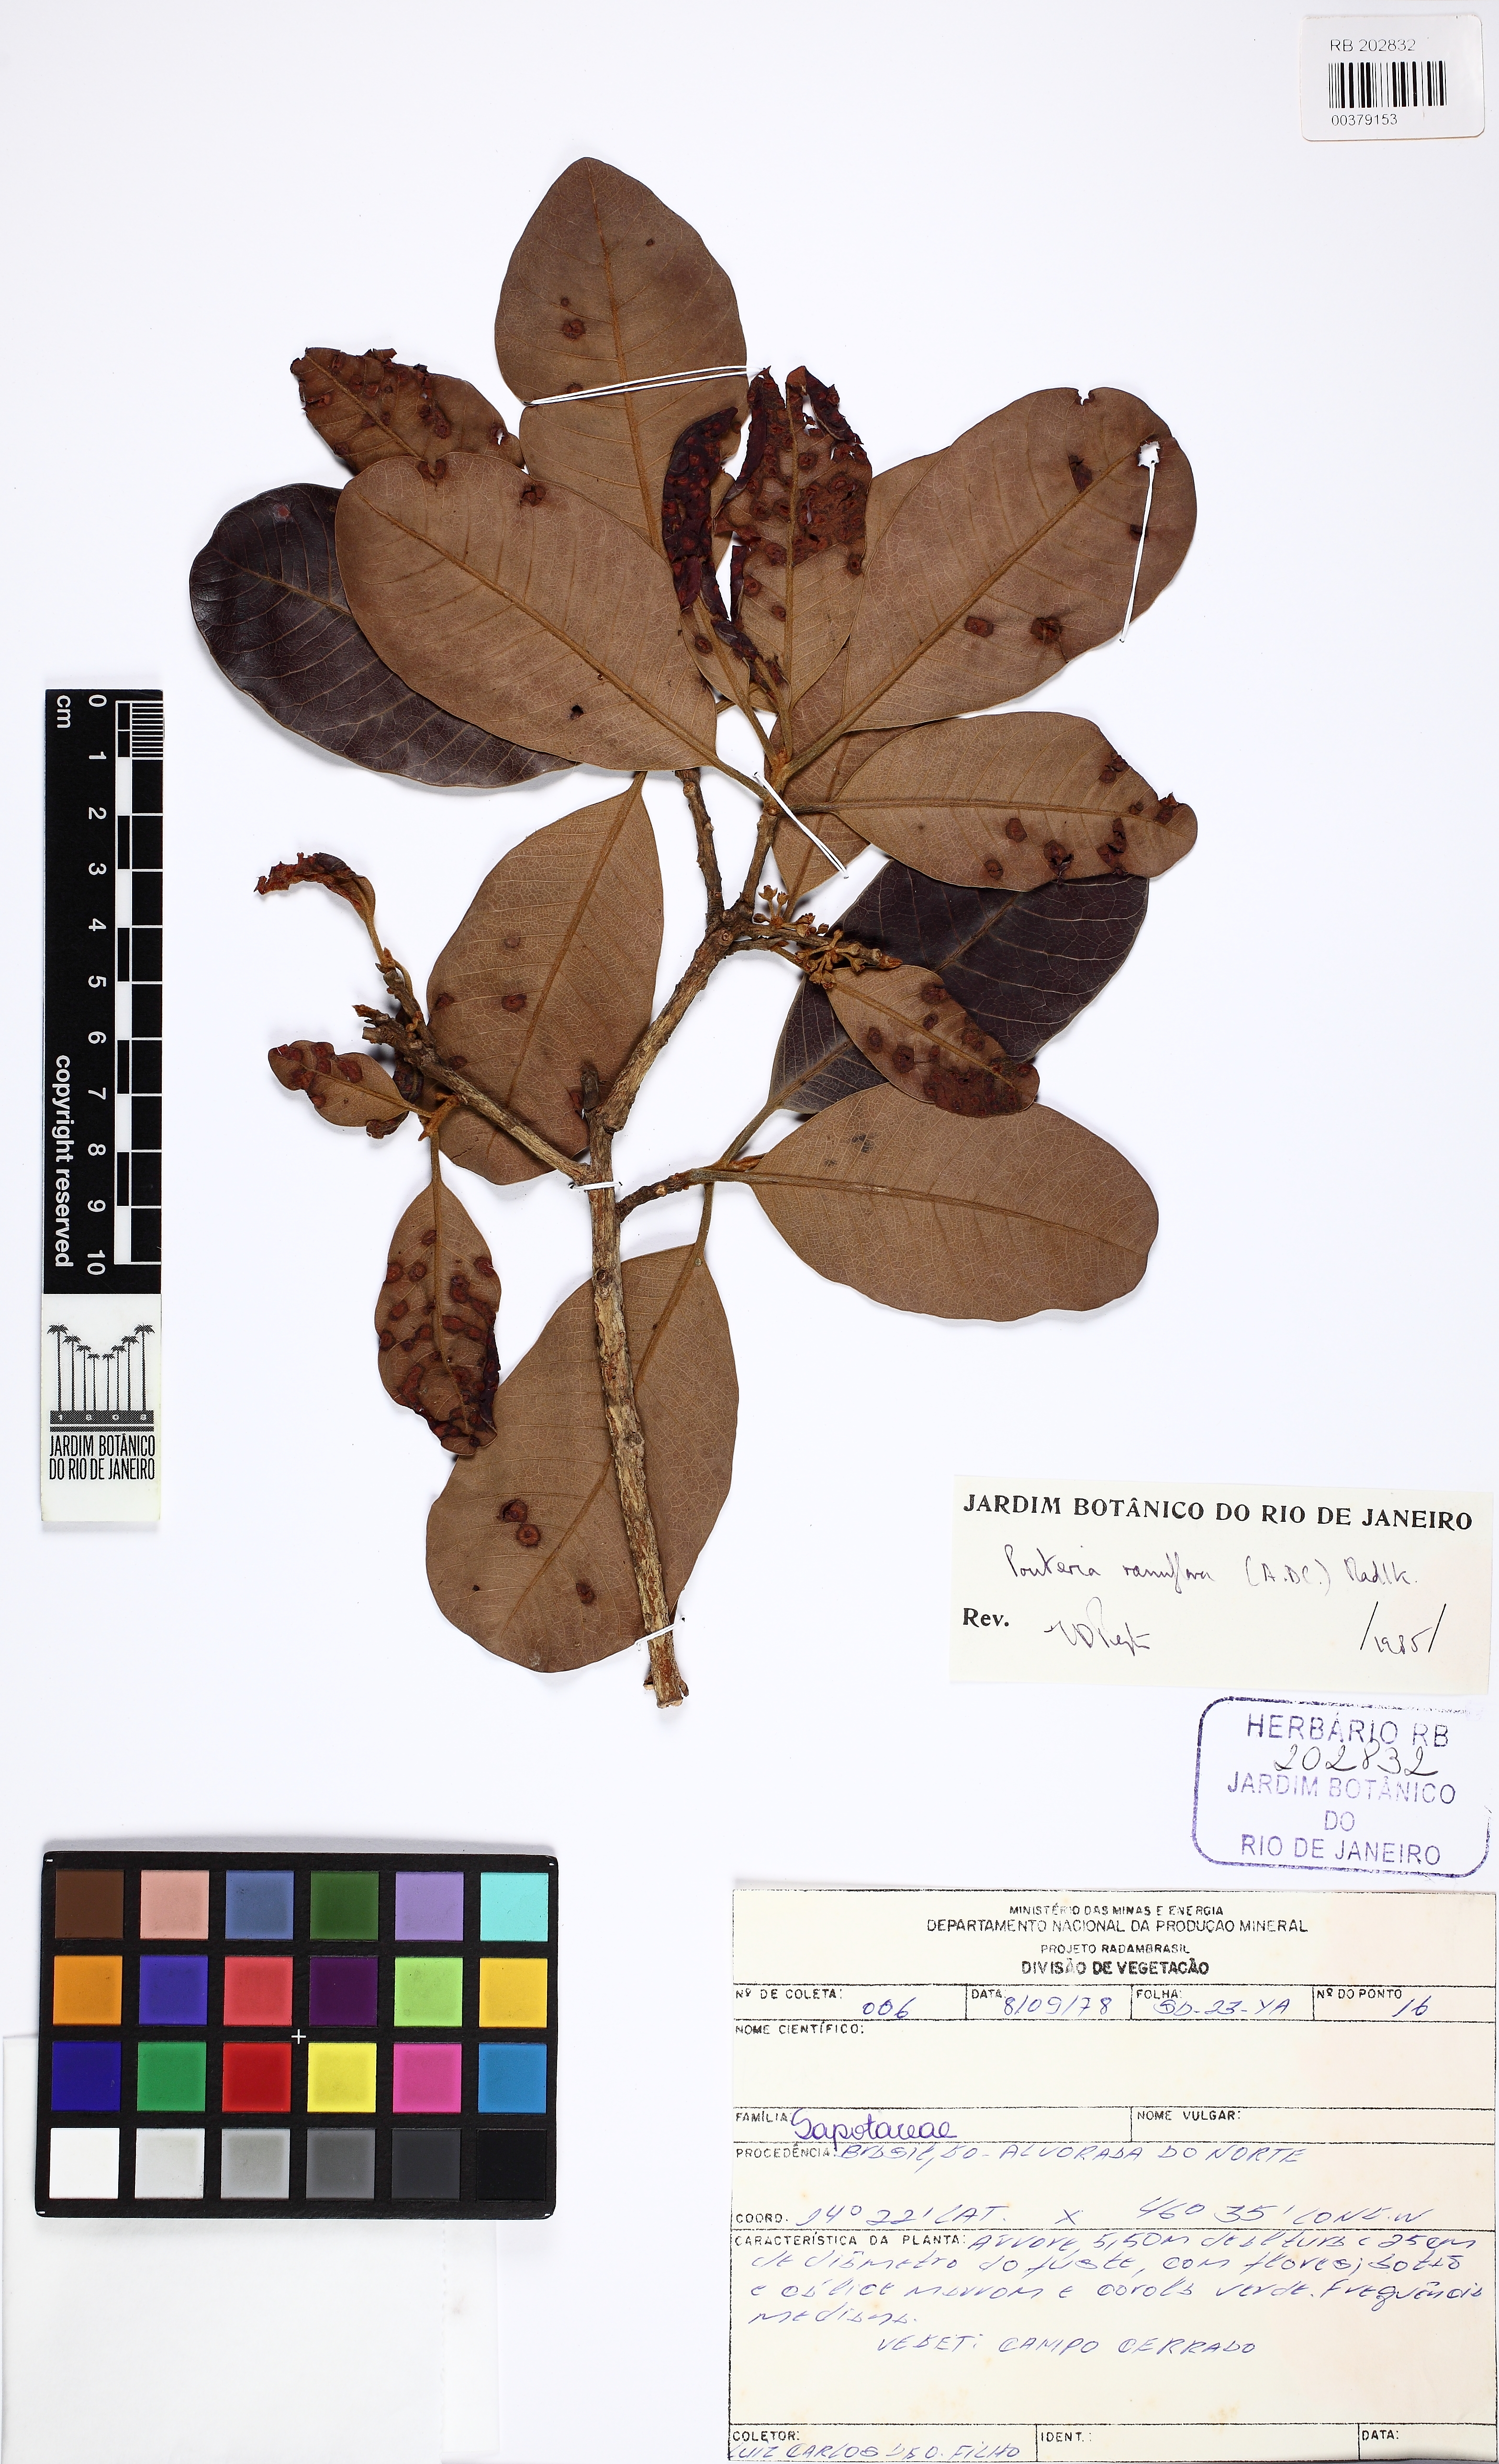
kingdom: Plantae
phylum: Tracheophyta
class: Magnoliopsida
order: Ericales
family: Sapotaceae
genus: Pouteria
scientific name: Pouteria ramiflora
